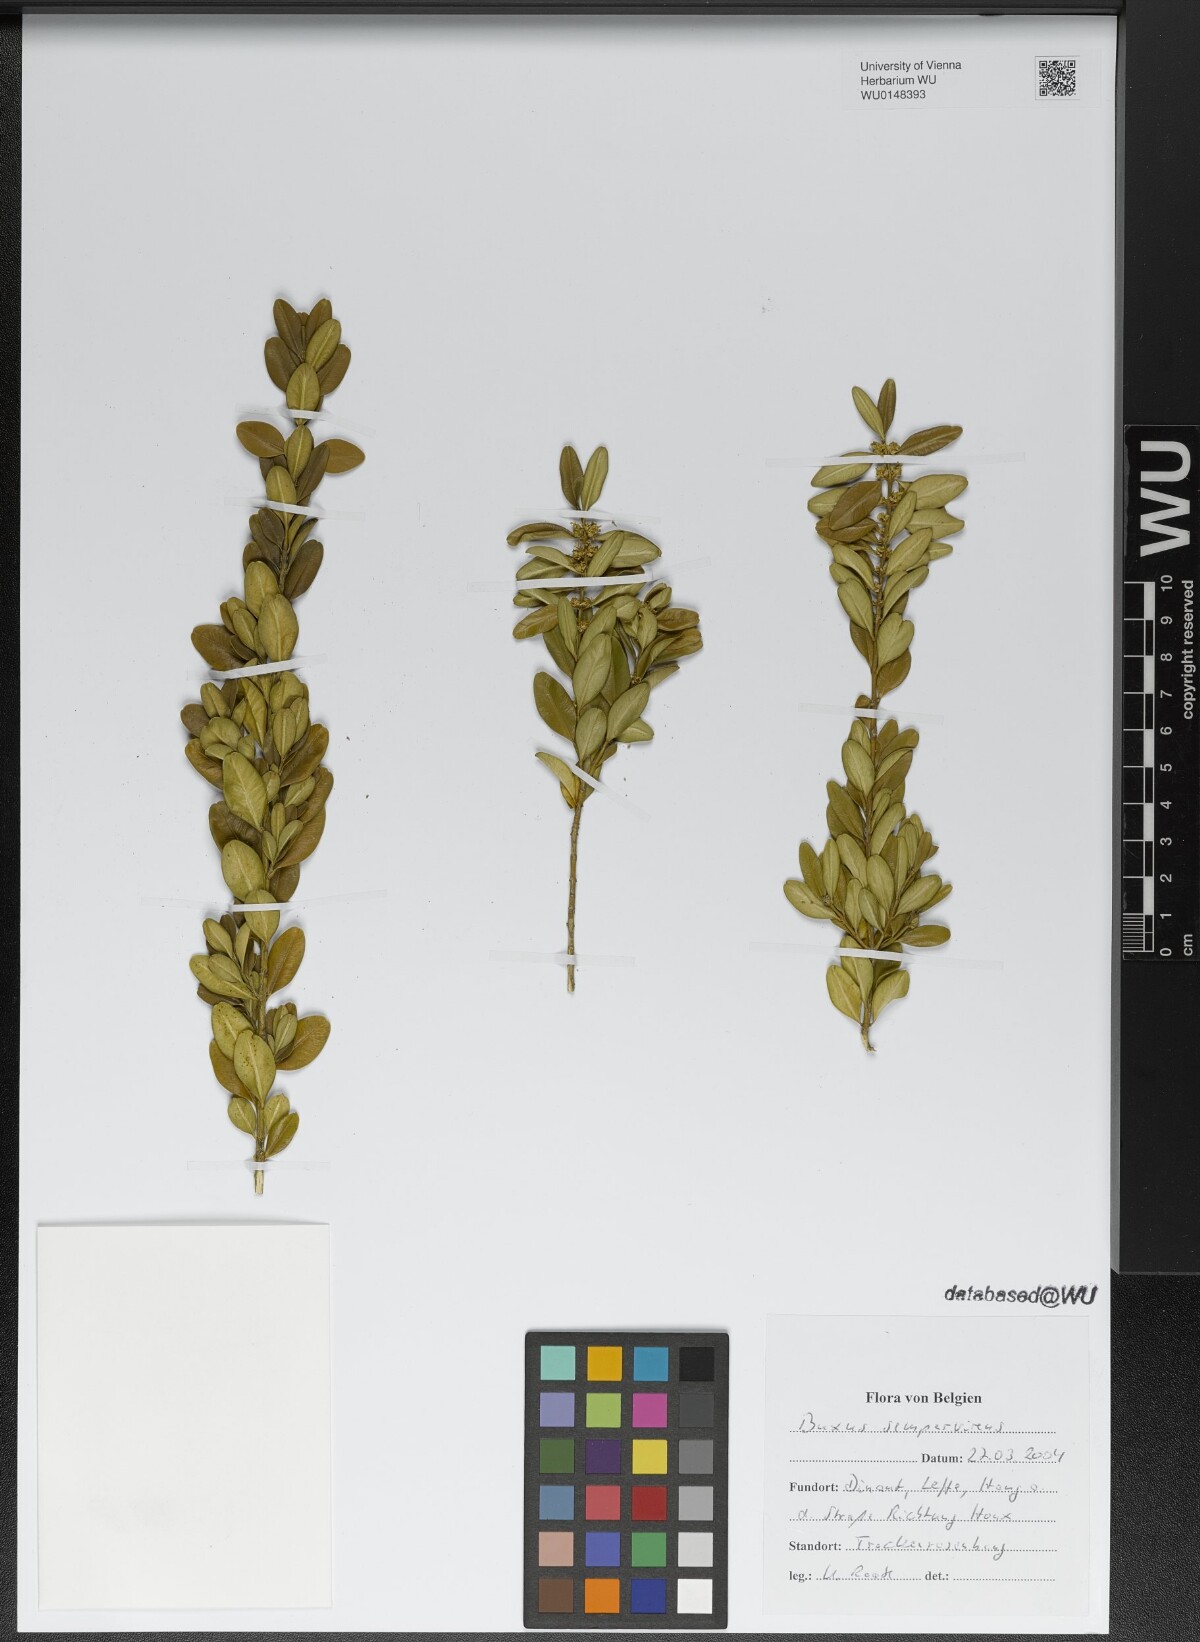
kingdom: Plantae
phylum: Tracheophyta
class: Magnoliopsida
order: Buxales
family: Buxaceae
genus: Buxus
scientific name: Buxus sempervirens
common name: Box
